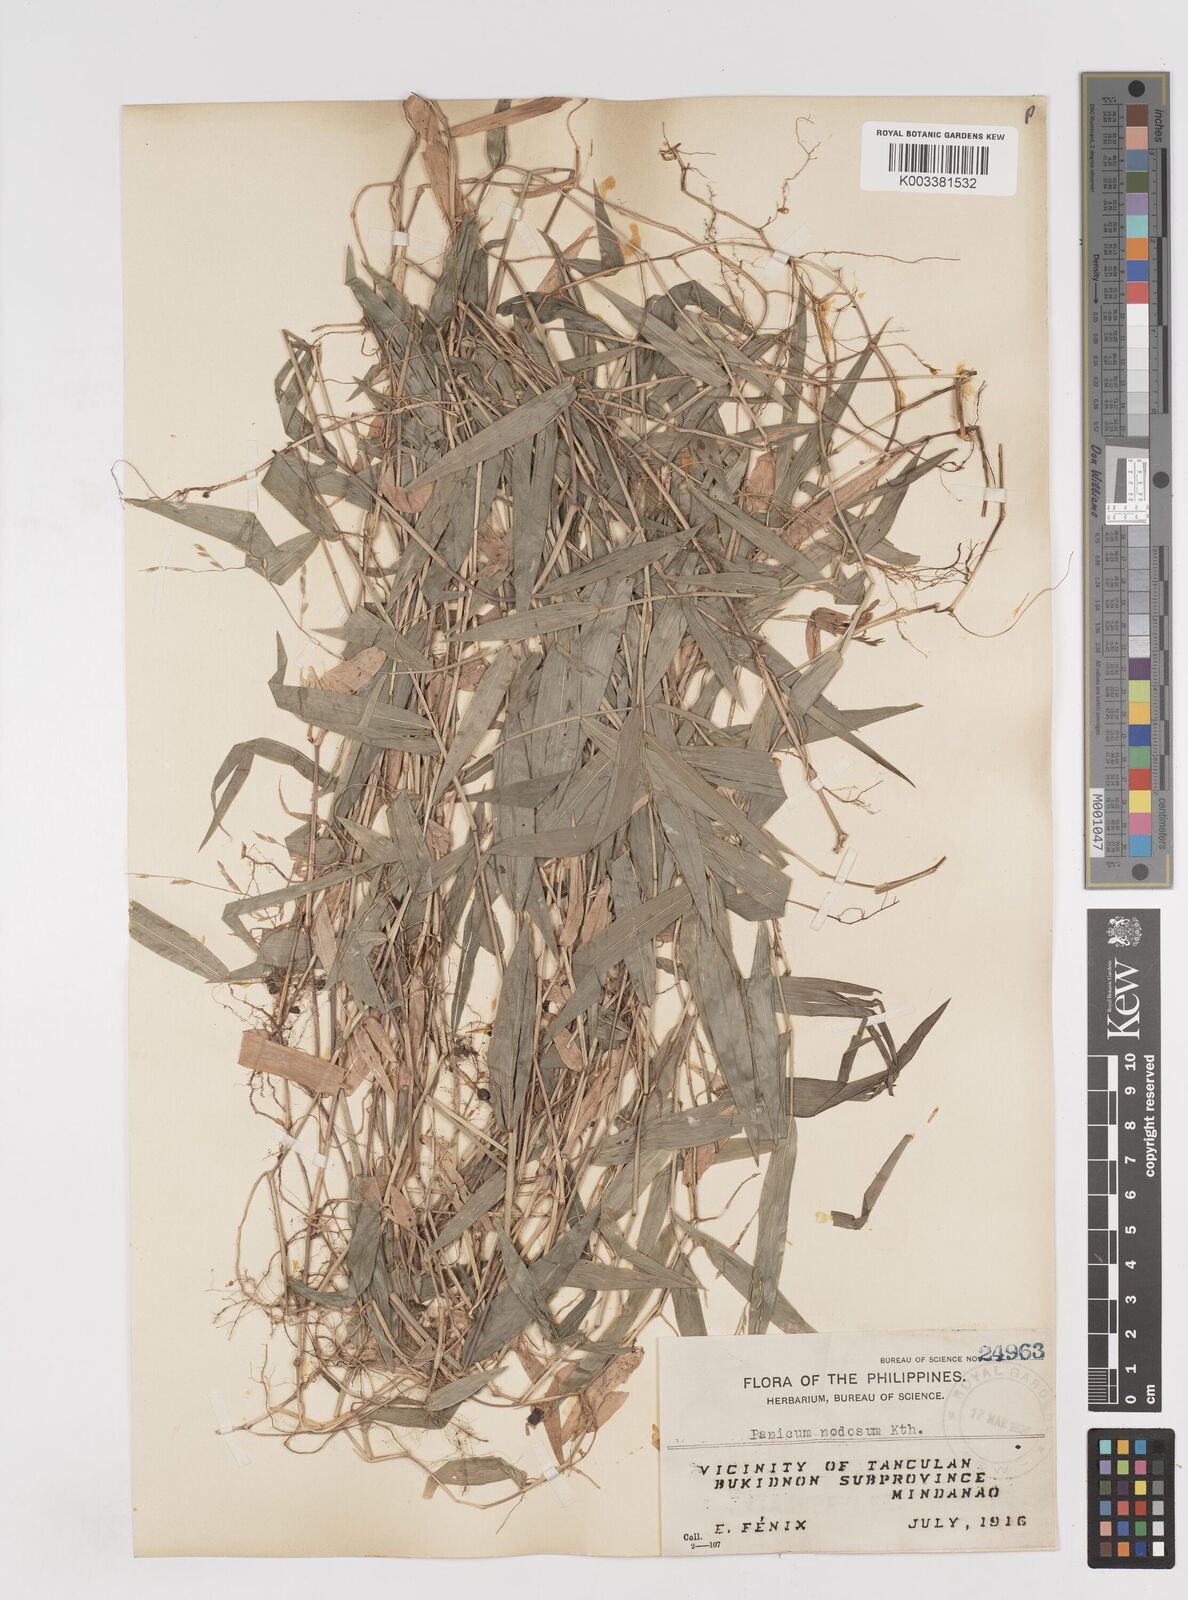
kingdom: Plantae
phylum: Tracheophyta
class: Liliopsida
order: Poales
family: Poaceae
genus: Ottochloa
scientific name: Ottochloa nodosa
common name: Slender-panic grass
